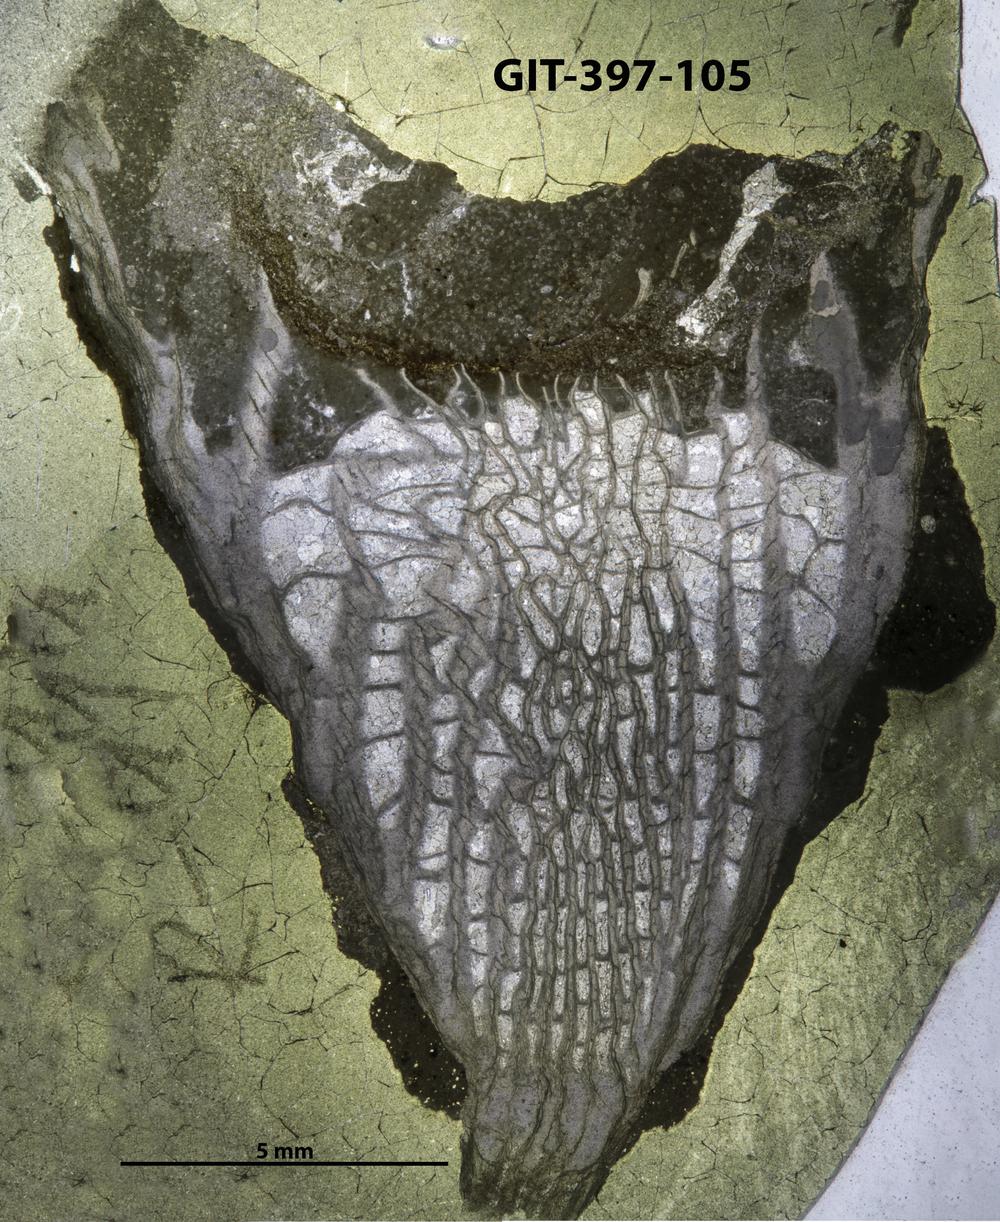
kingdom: Animalia
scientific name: Animalia
